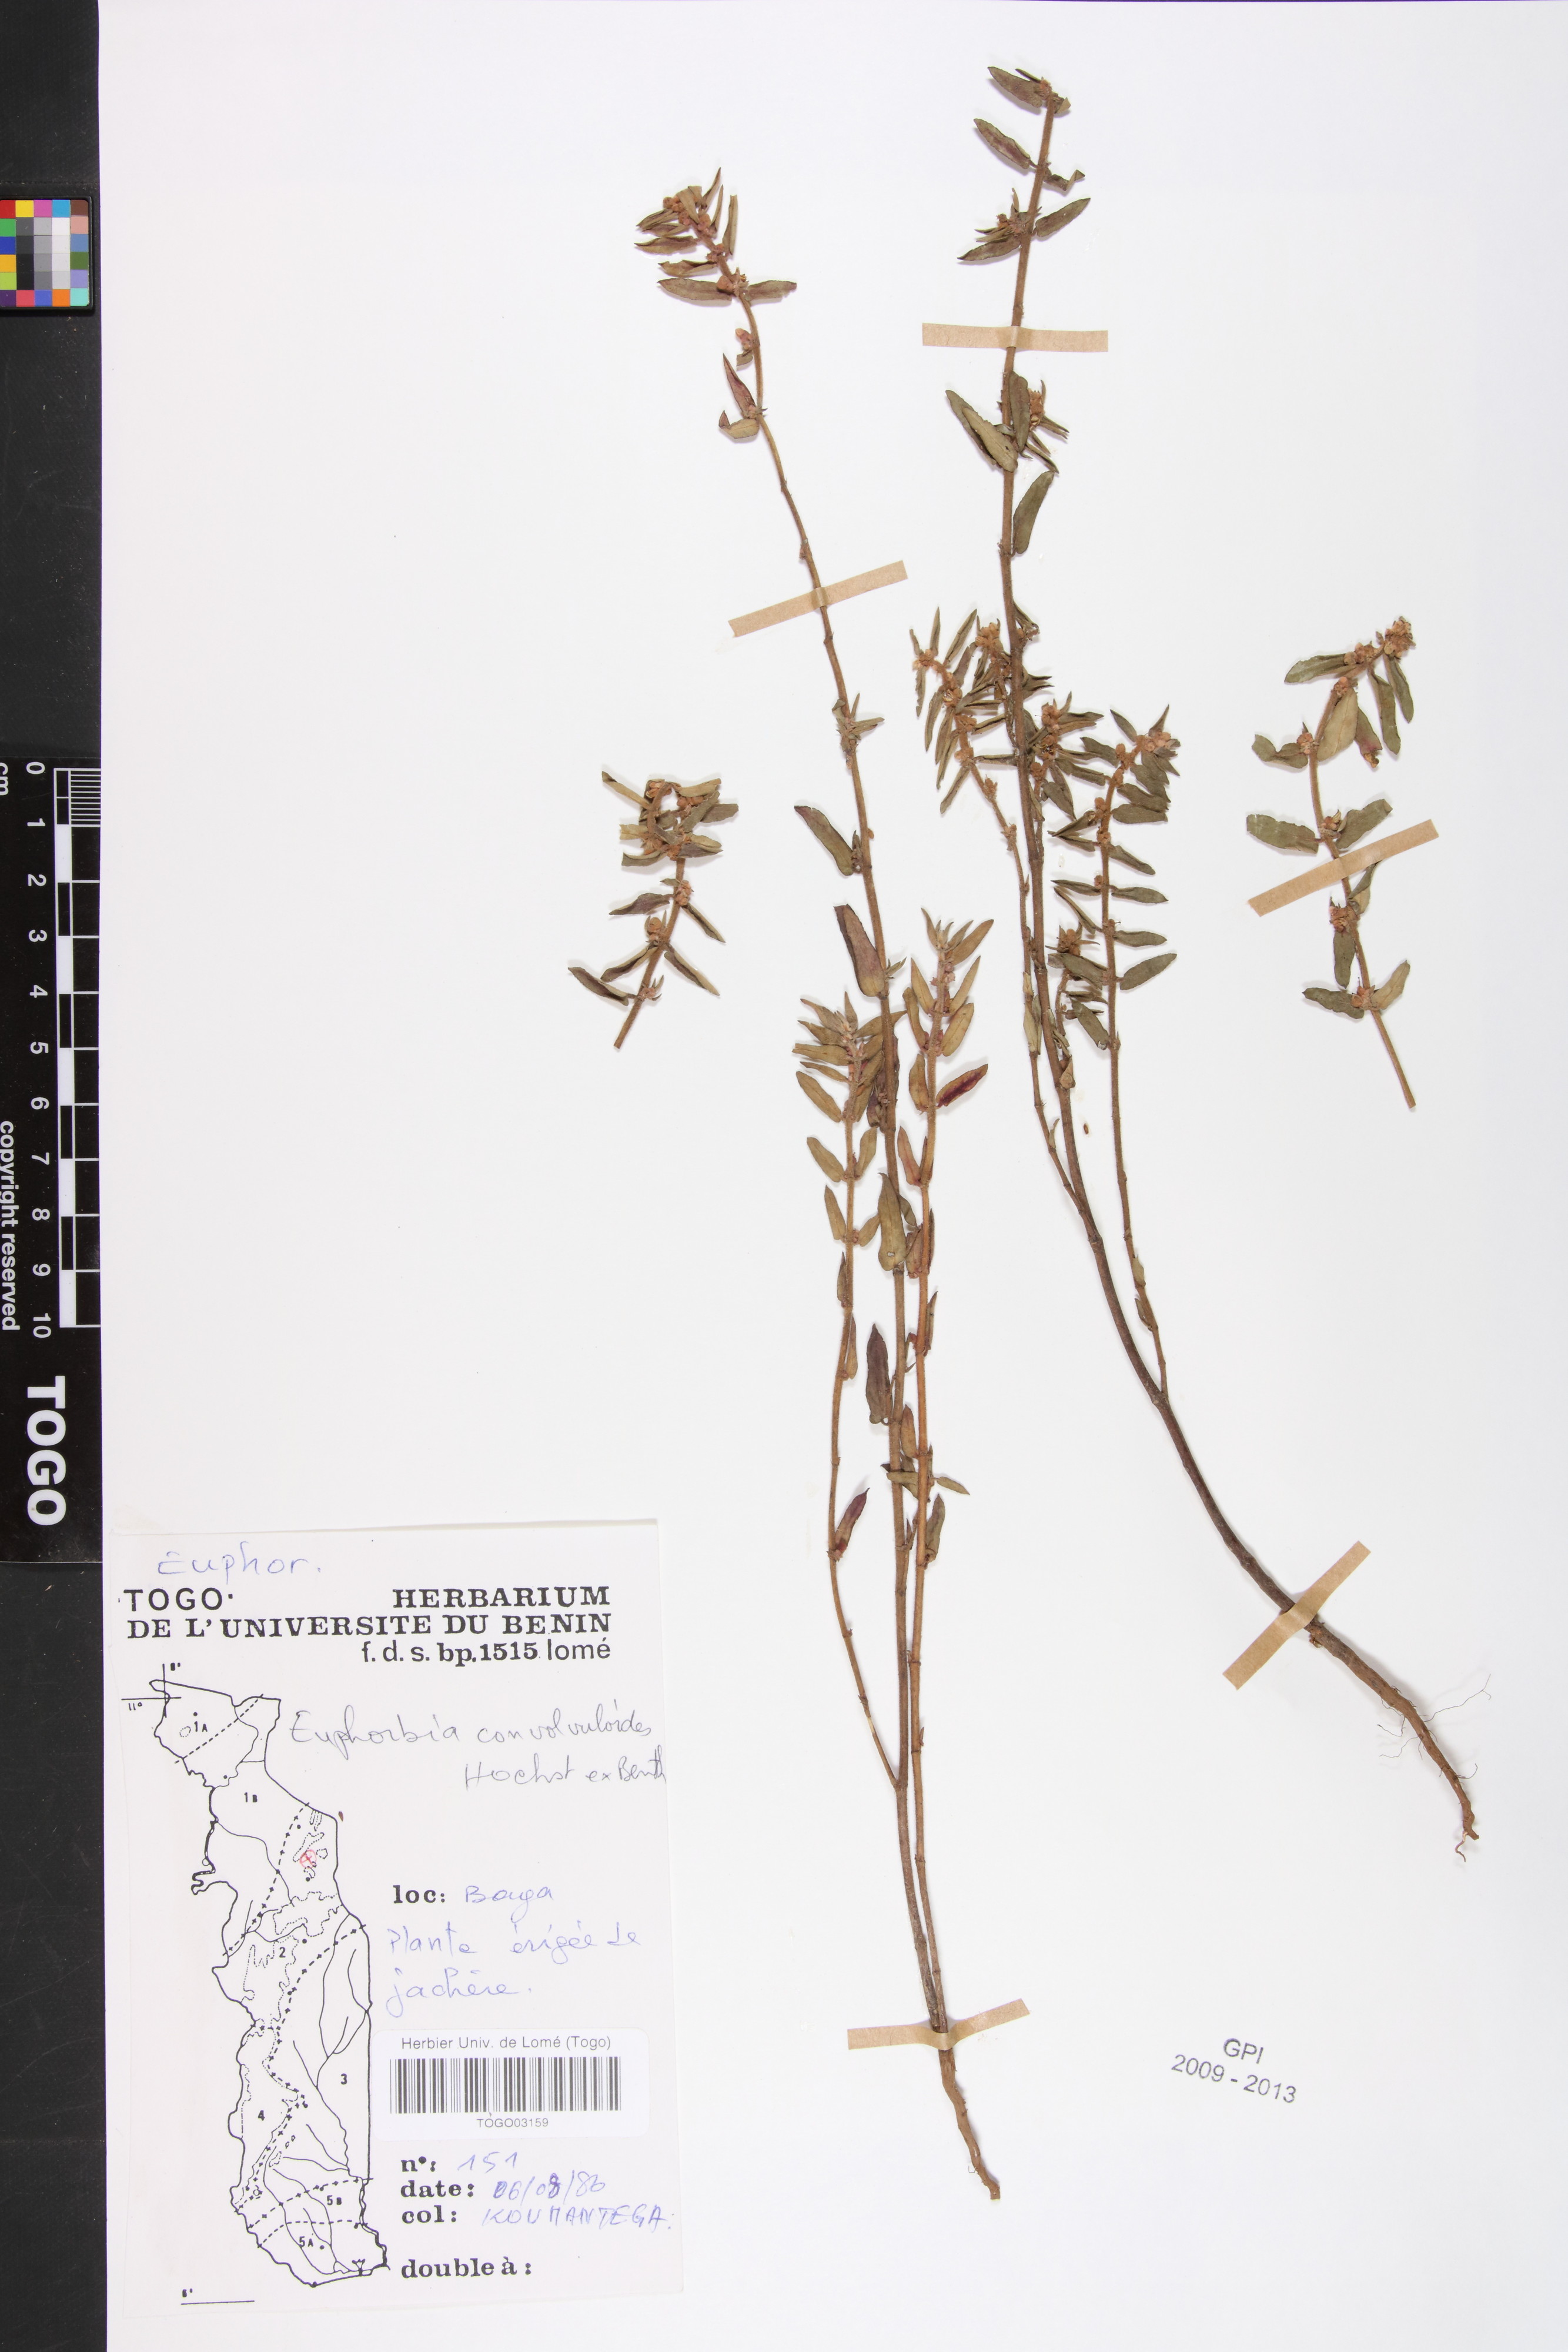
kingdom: Plantae
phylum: Tracheophyta
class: Magnoliopsida
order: Malpighiales
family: Euphorbiaceae
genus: Euphorbia
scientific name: Euphorbia convolvuloides
